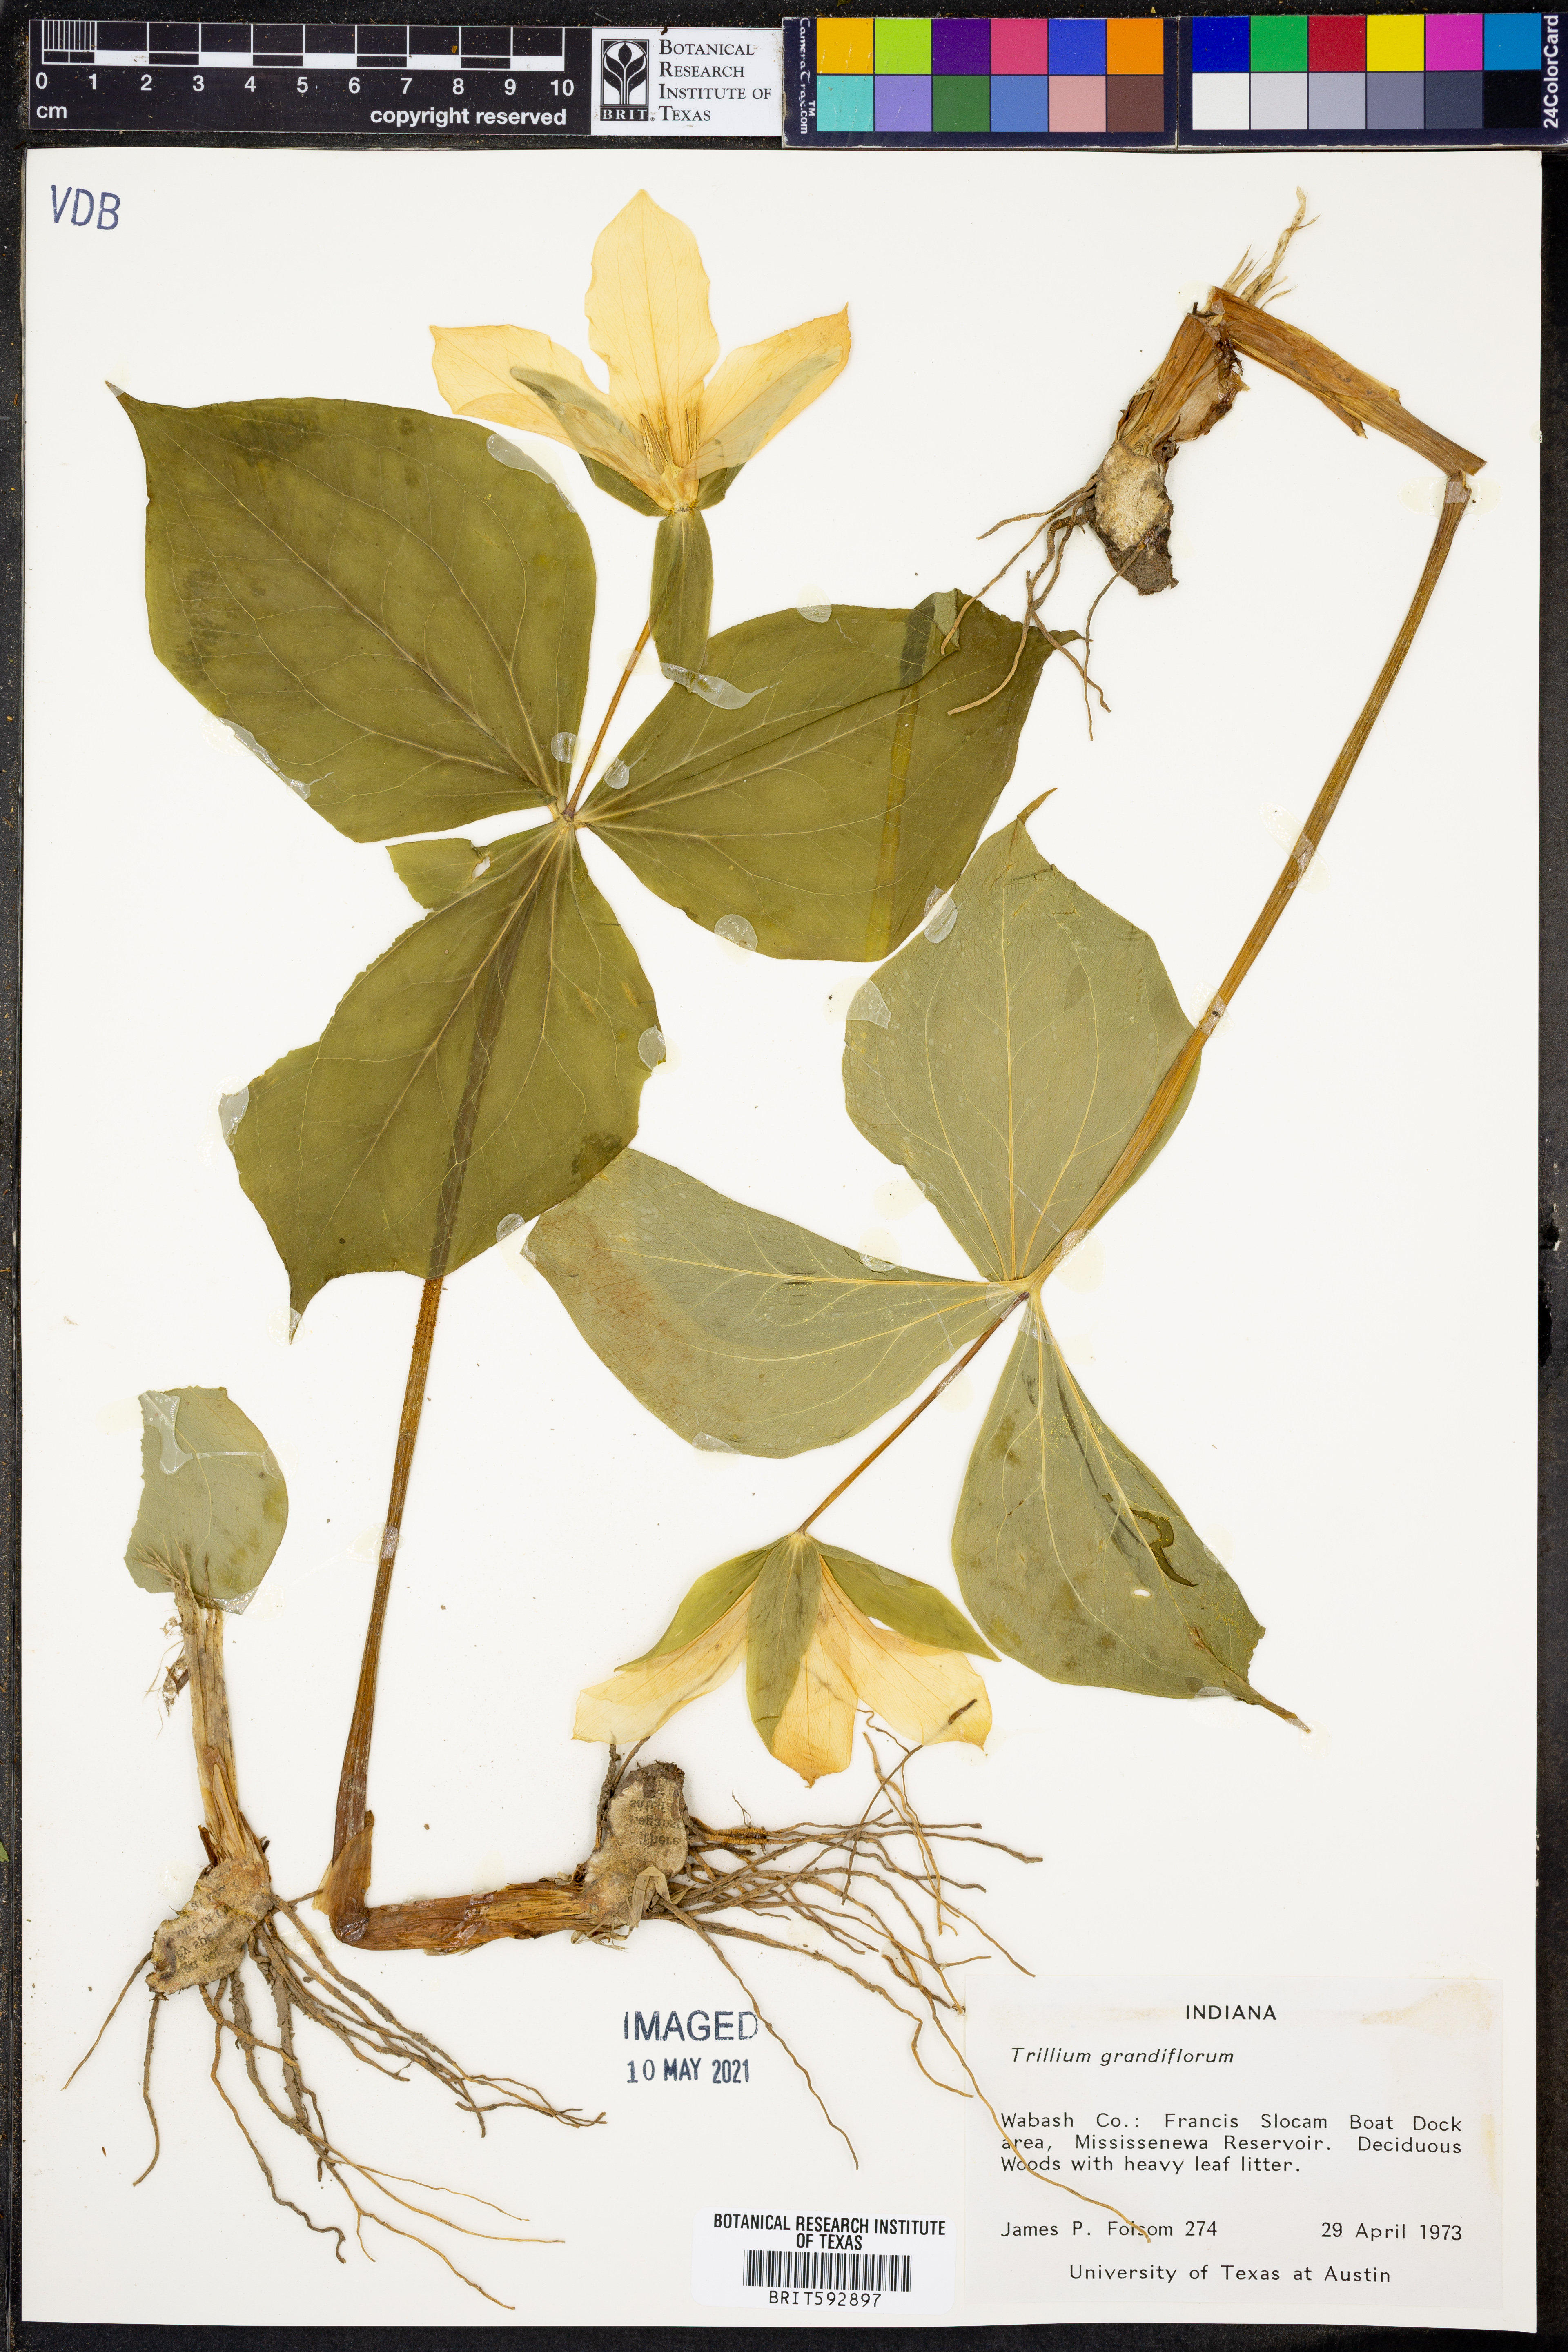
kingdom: Plantae
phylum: Tracheophyta
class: Liliopsida
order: Liliales
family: Melanthiaceae
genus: Trillium
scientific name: Trillium grandiflorum
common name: Great white trillium
